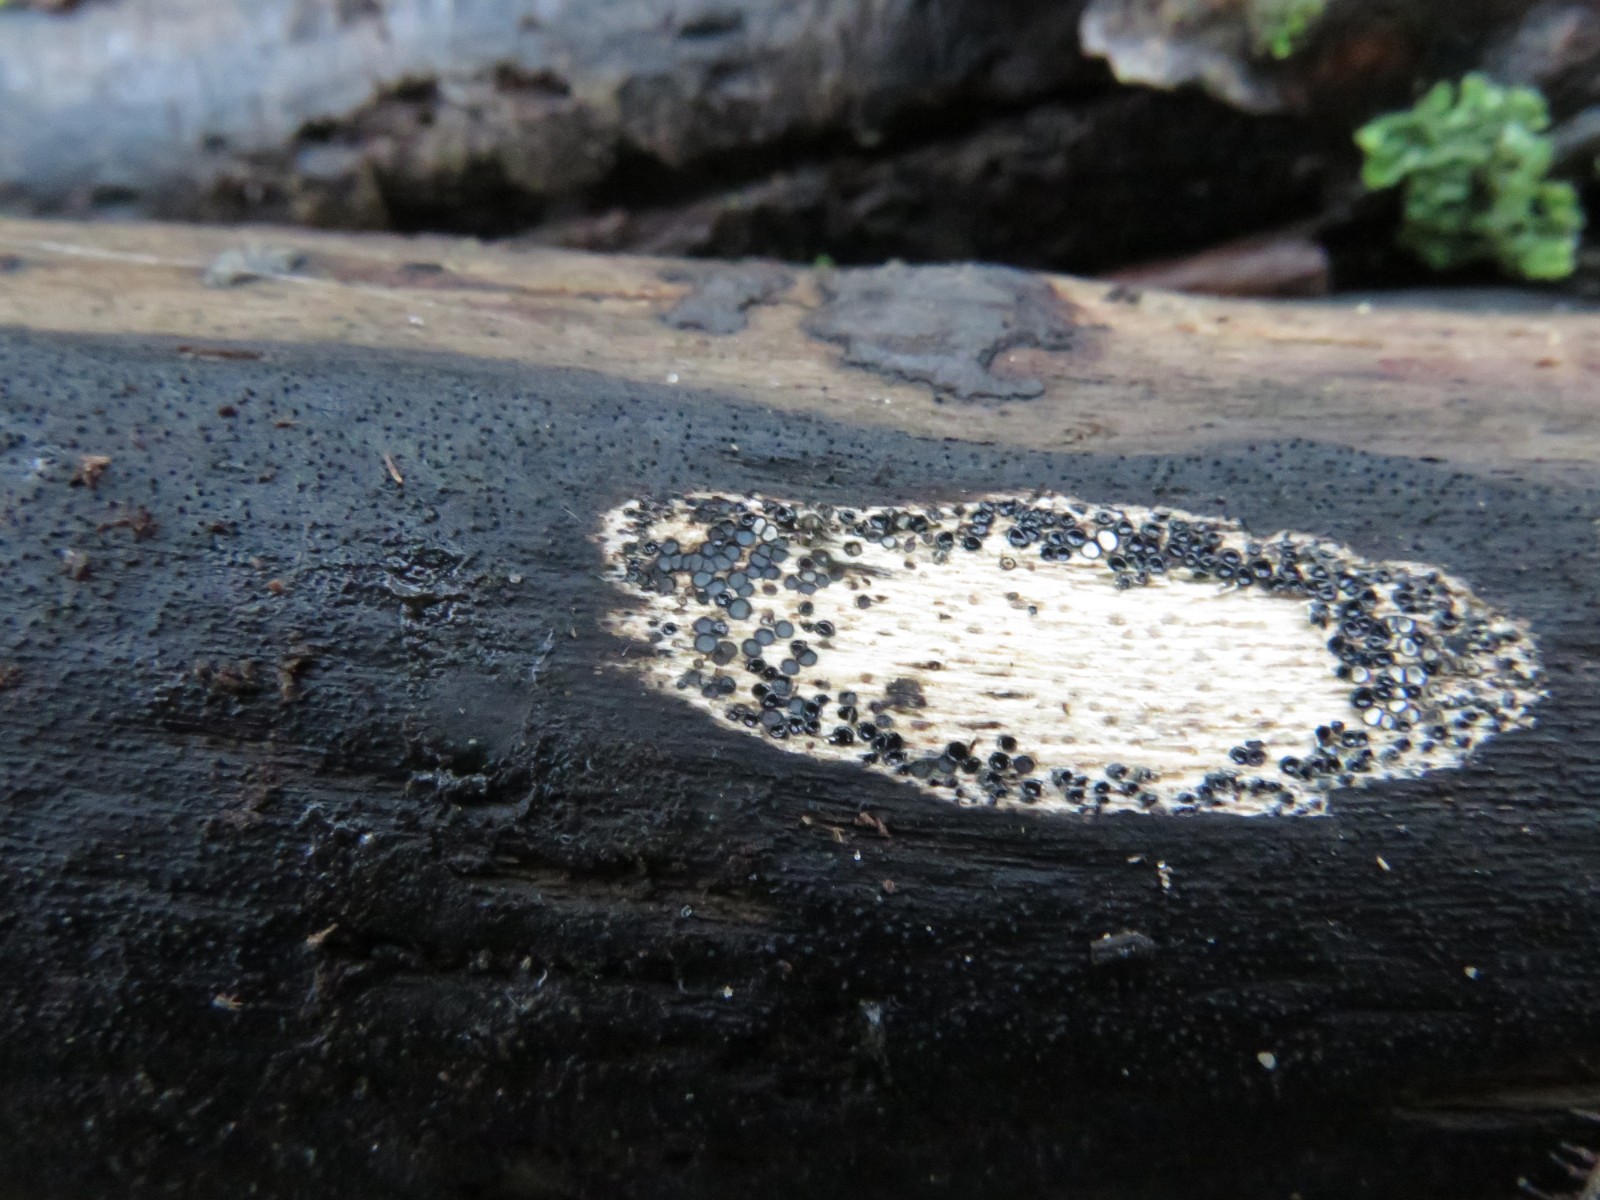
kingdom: Fungi
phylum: Ascomycota
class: Sordariomycetes
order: Xylariales
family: Diatrypaceae
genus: Eutypa
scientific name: Eutypa lata
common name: almindelig kulskorpe
